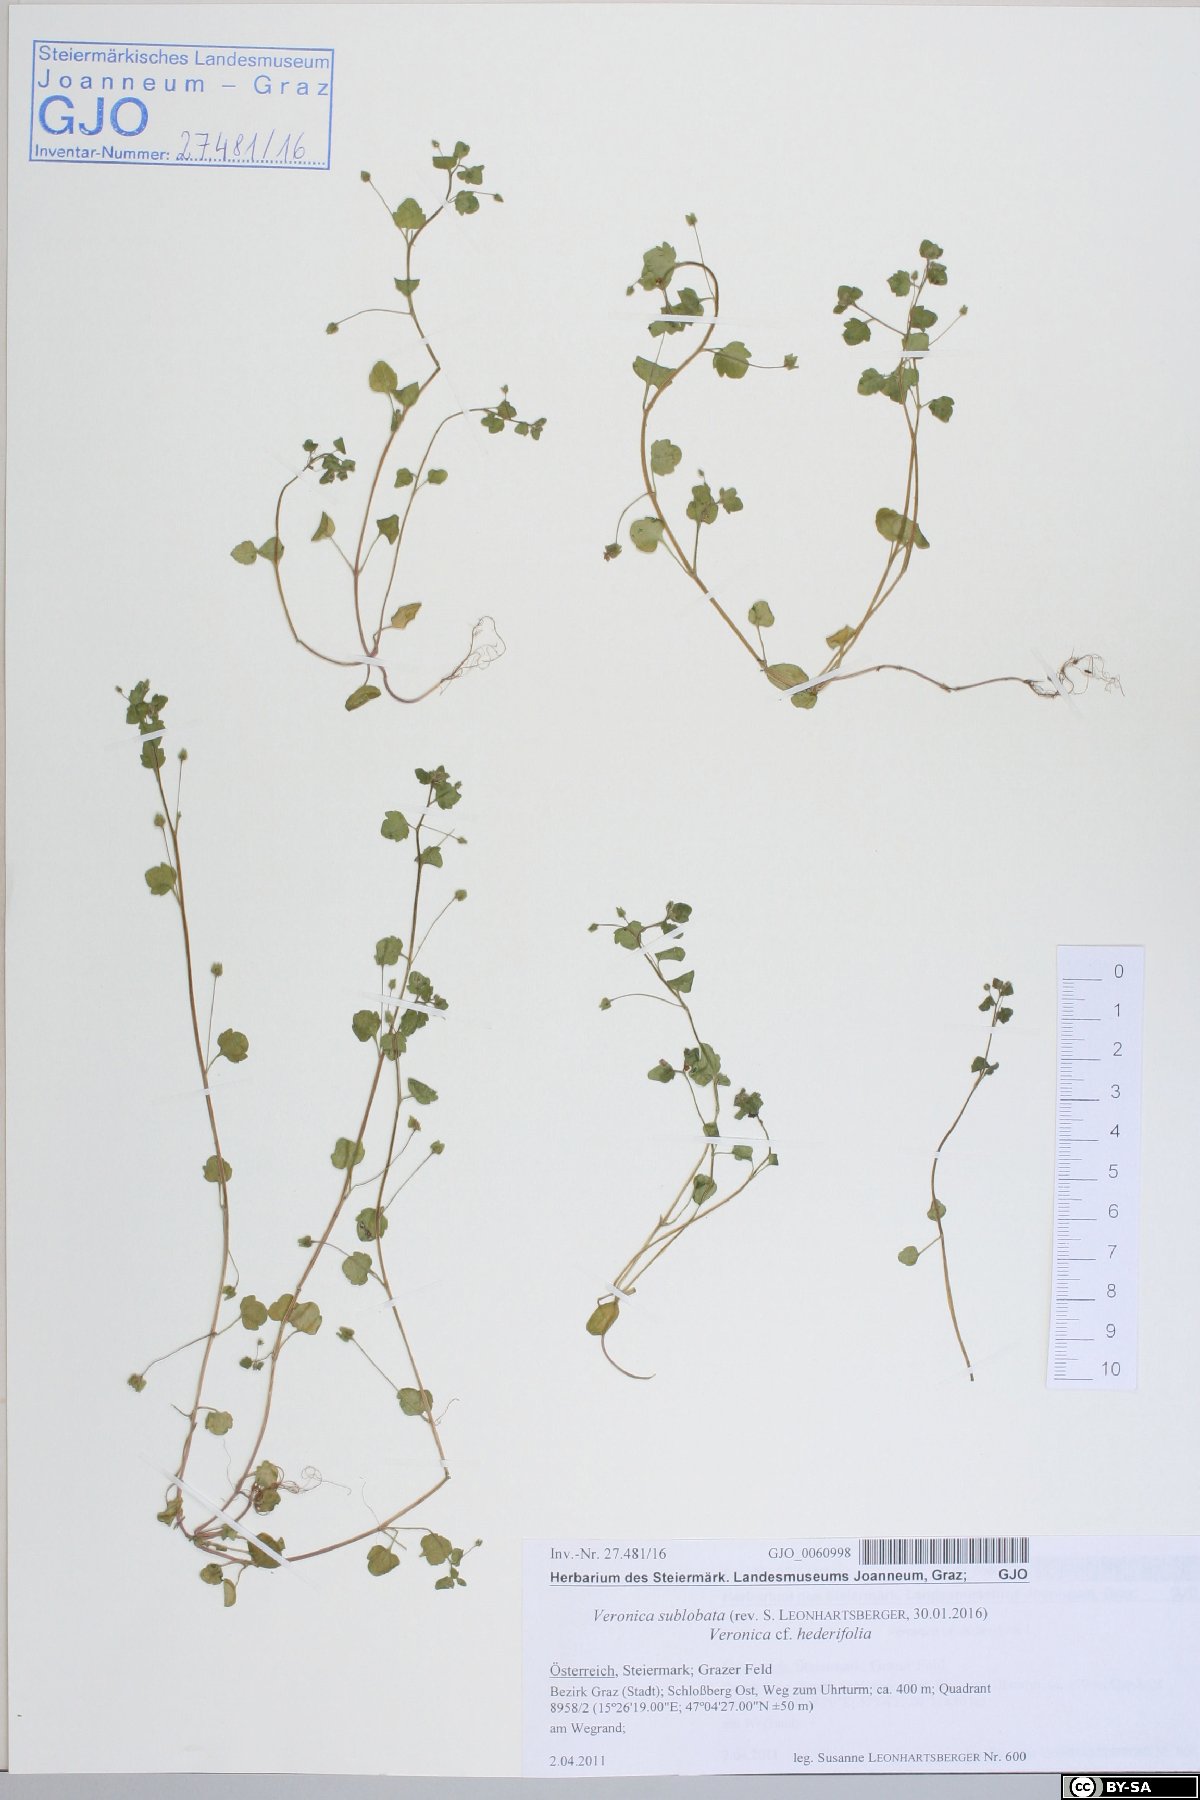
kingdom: Plantae
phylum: Tracheophyta
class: Magnoliopsida
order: Lamiales
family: Plantaginaceae
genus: Veronica
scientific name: Veronica sublobata
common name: False ivy-leaved speedwell
